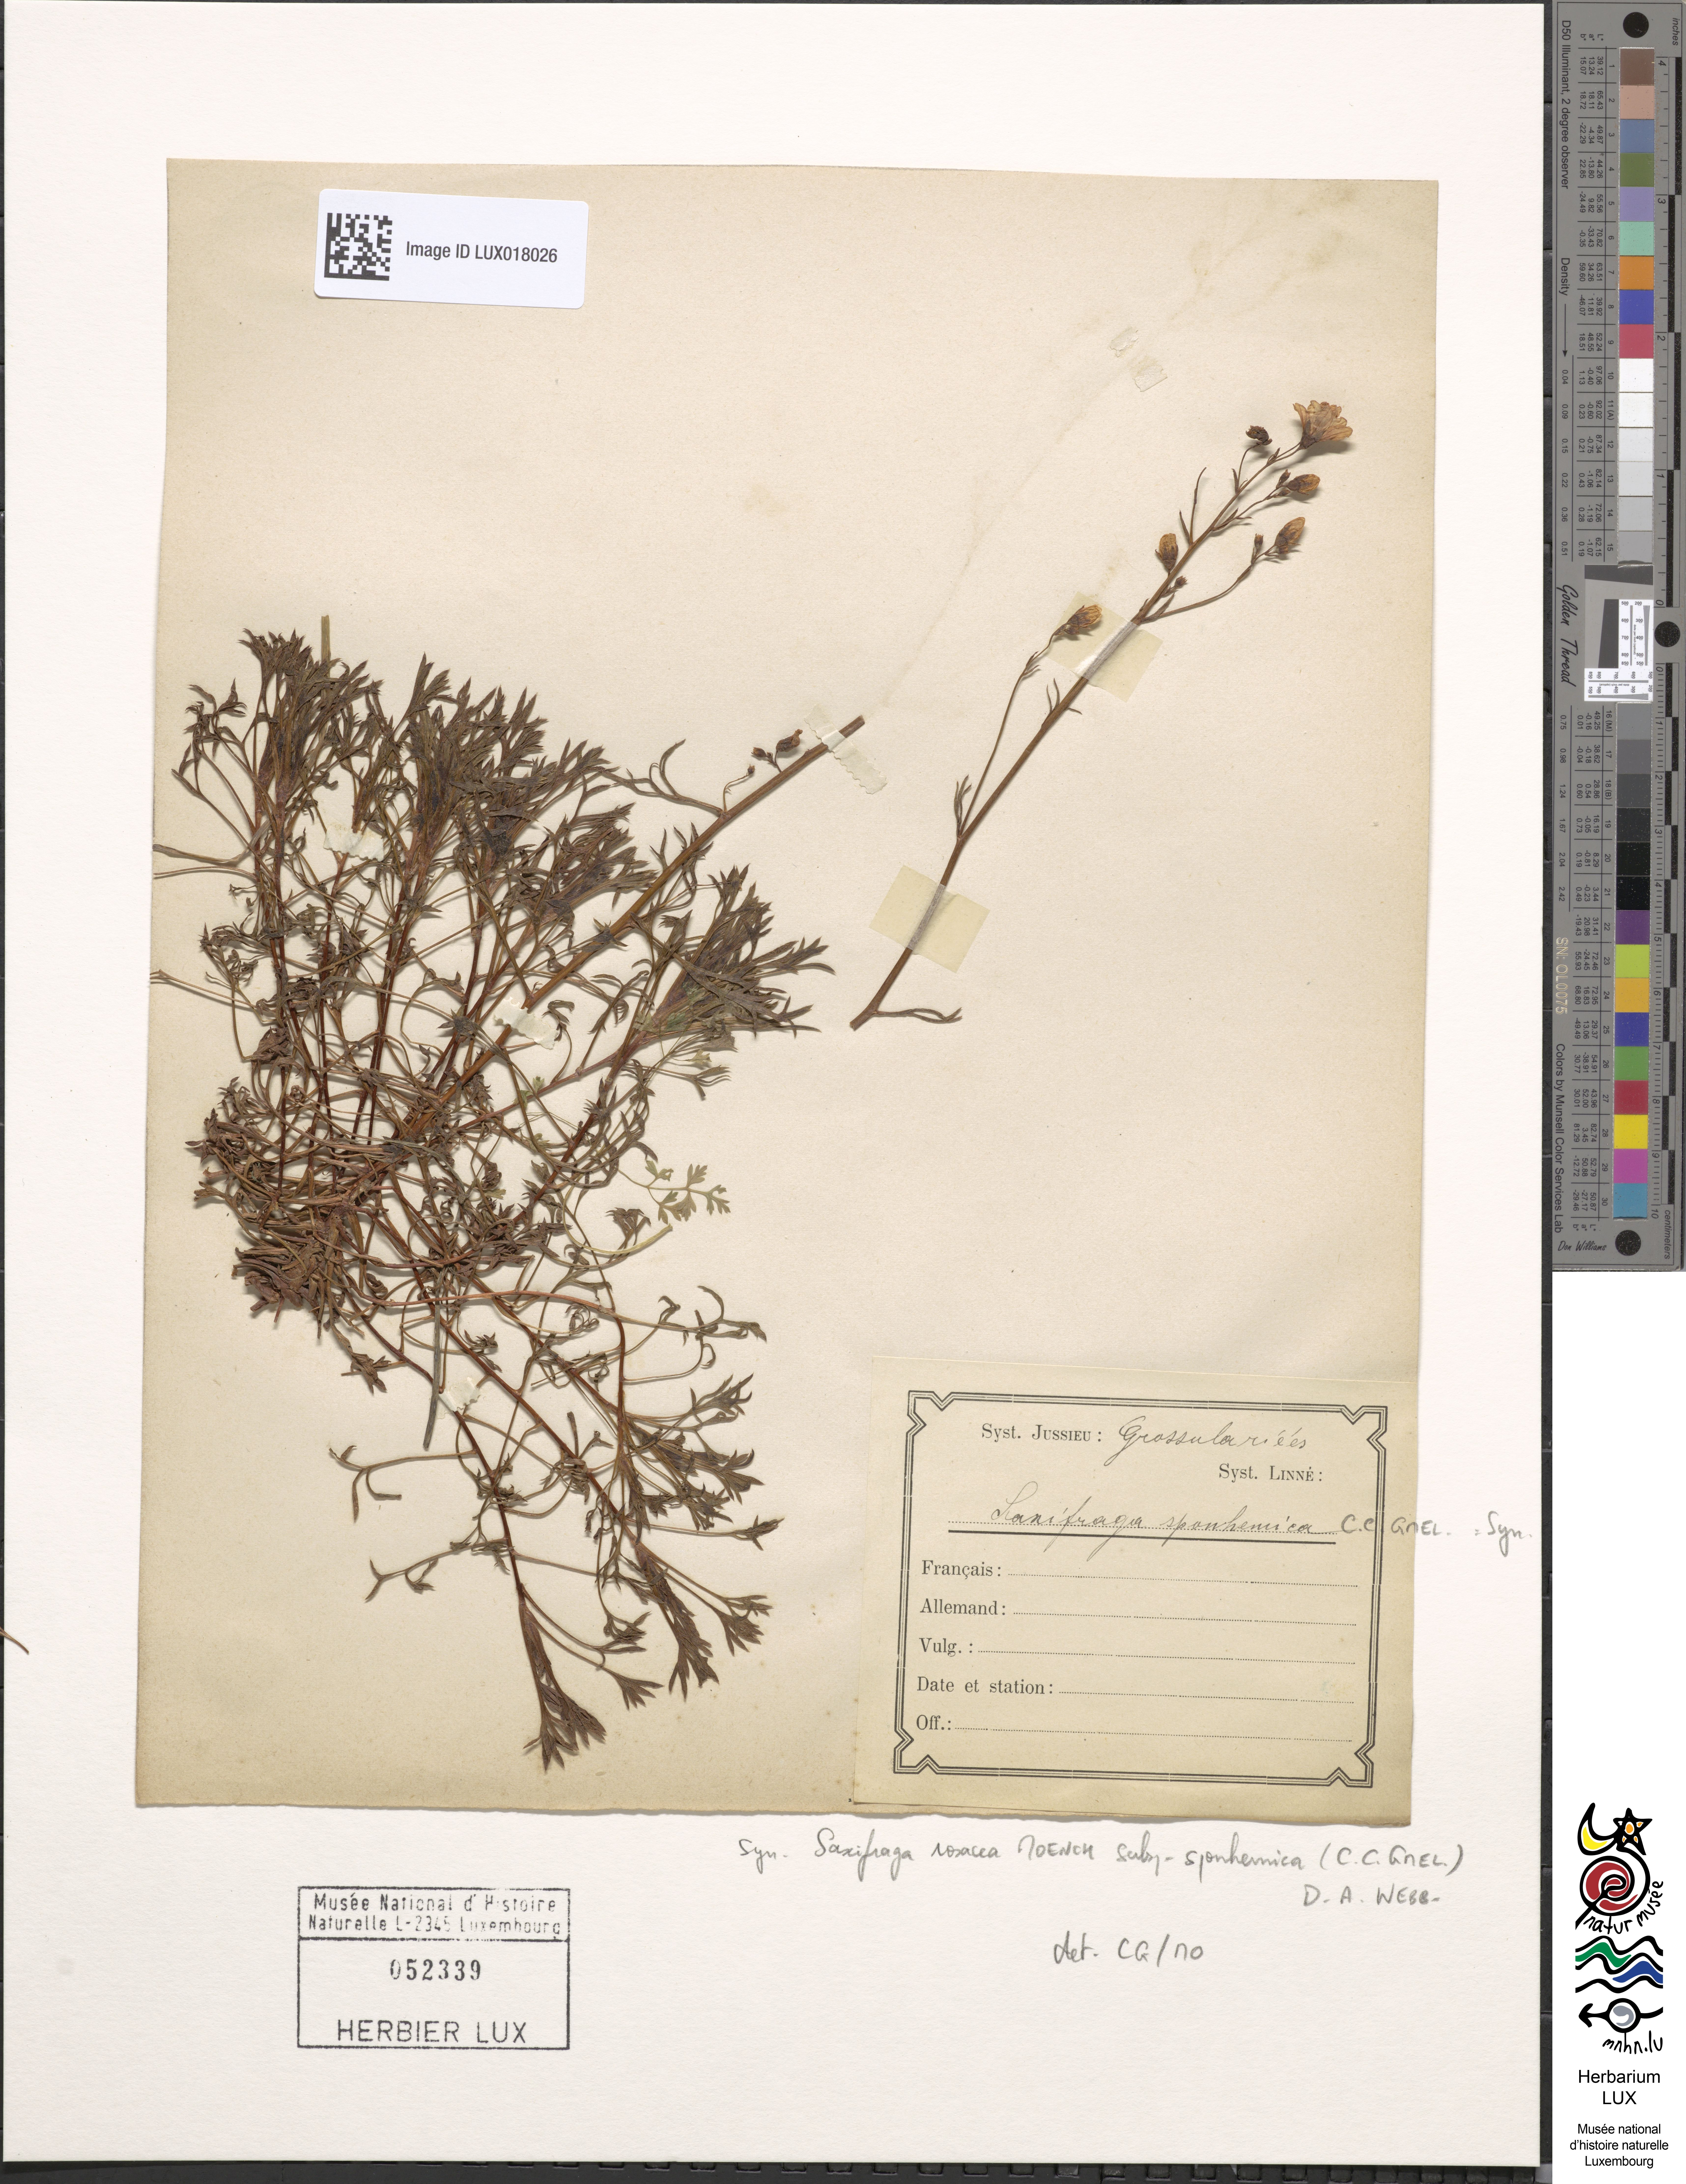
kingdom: Plantae
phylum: Tracheophyta
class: Magnoliopsida
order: Saxifragales
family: Saxifragaceae
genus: Saxifraga
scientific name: Saxifraga rosacea
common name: Irish saxifrage
